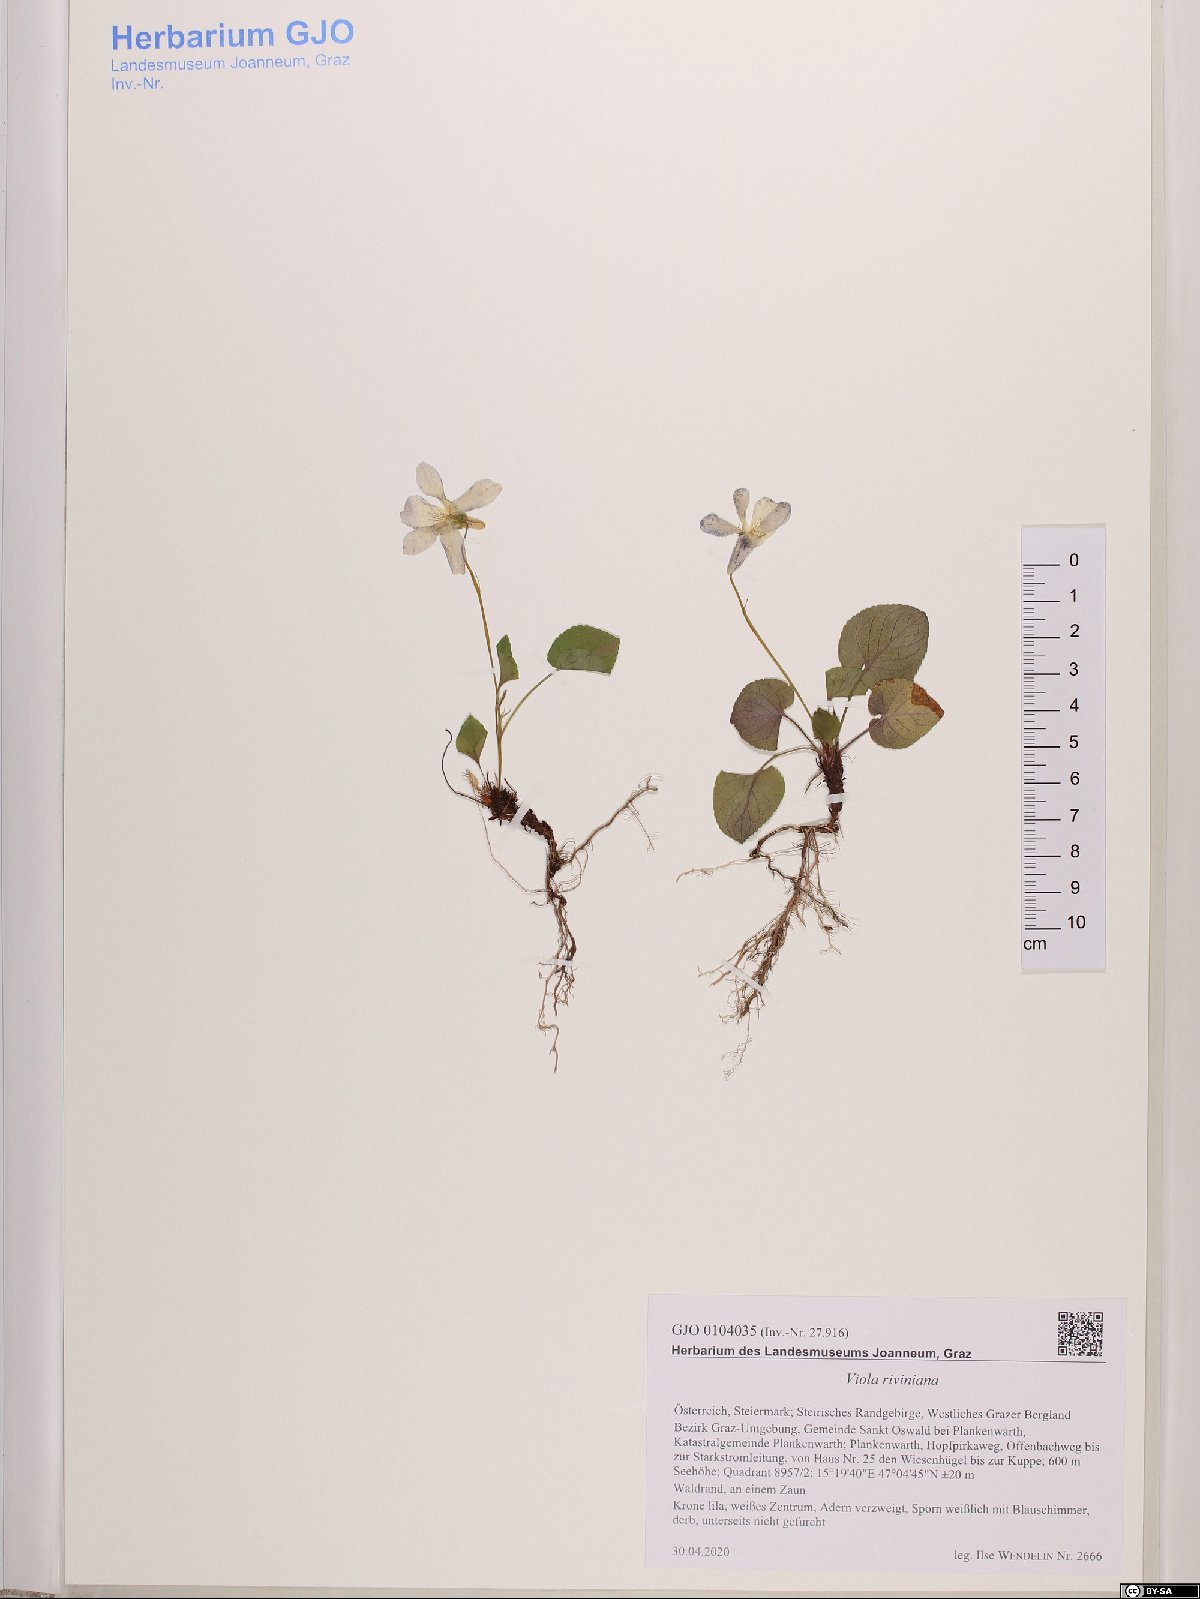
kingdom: Plantae
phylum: Tracheophyta
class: Magnoliopsida
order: Malpighiales
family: Violaceae
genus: Viola
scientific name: Viola riviniana
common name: Common dog-violet
